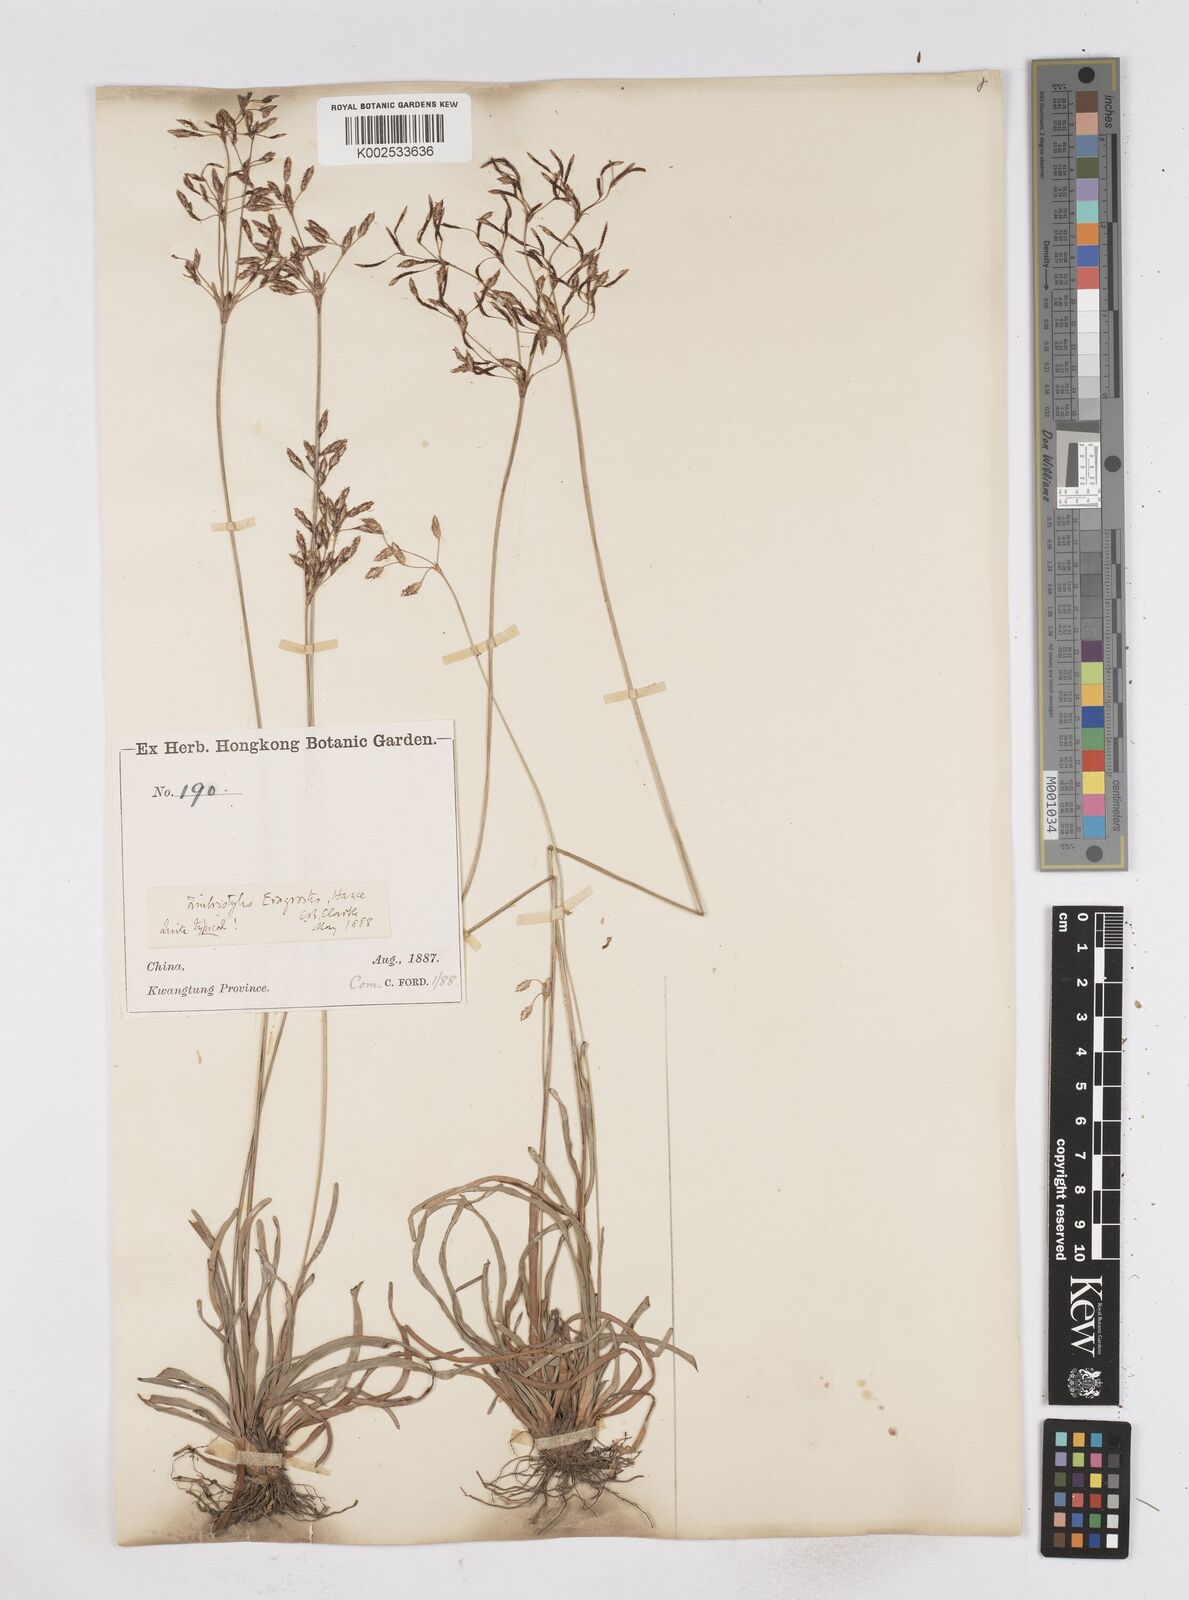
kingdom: Plantae
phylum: Tracheophyta
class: Liliopsida
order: Poales
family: Cyperaceae
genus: Fimbristylis
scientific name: Fimbristylis eragrostis
